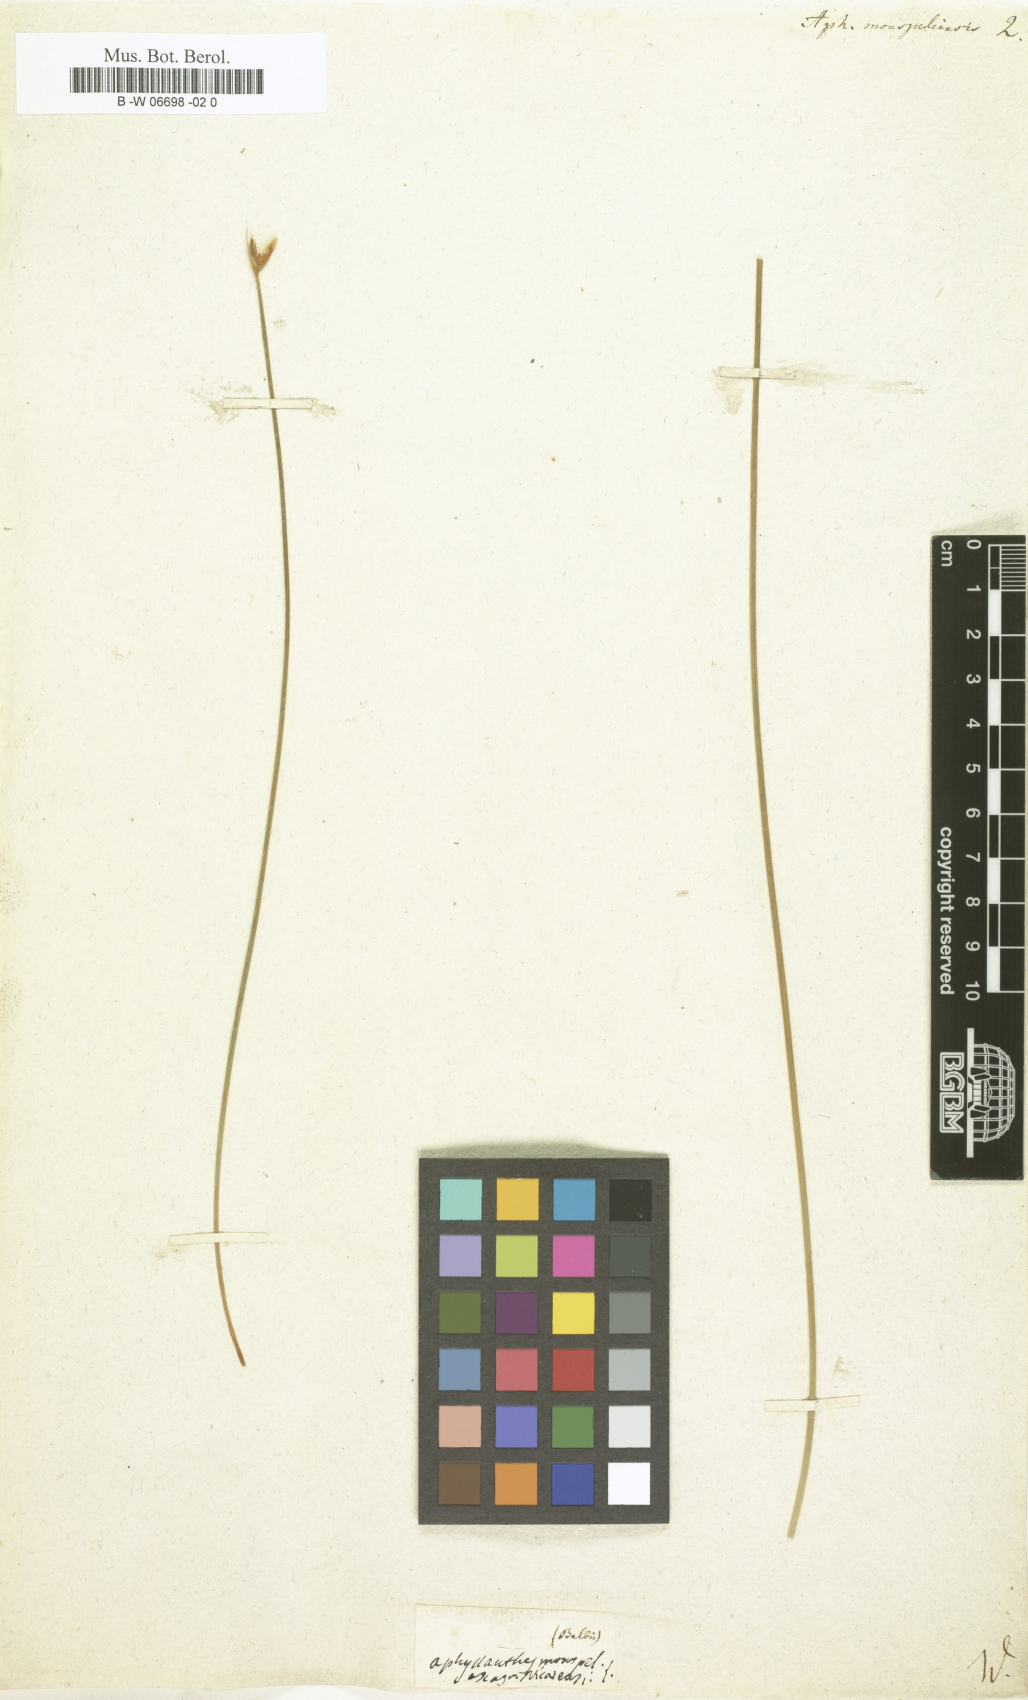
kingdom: Plantae
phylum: Tracheophyta
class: Liliopsida
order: Asparagales
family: Asparagaceae
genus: Aphyllanthes
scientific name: Aphyllanthes monspeliensis
